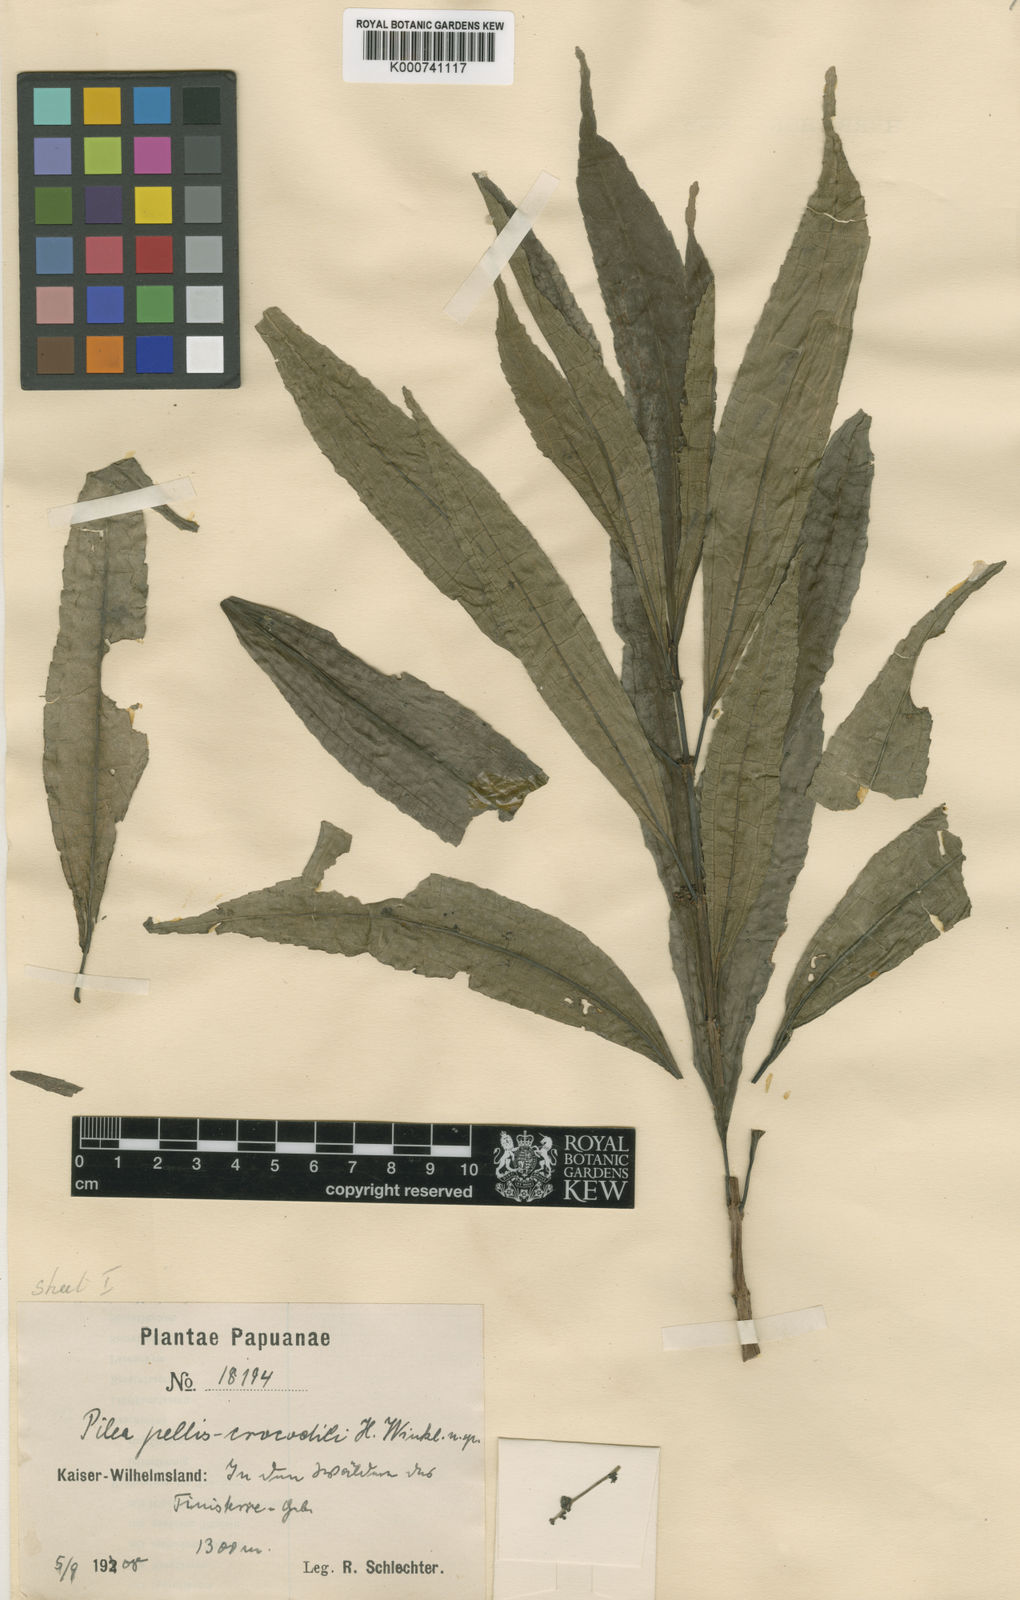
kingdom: Plantae
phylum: Tracheophyta
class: Magnoliopsida
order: Rosales
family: Urticaceae
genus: Pilea
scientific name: Pilea cuneata
